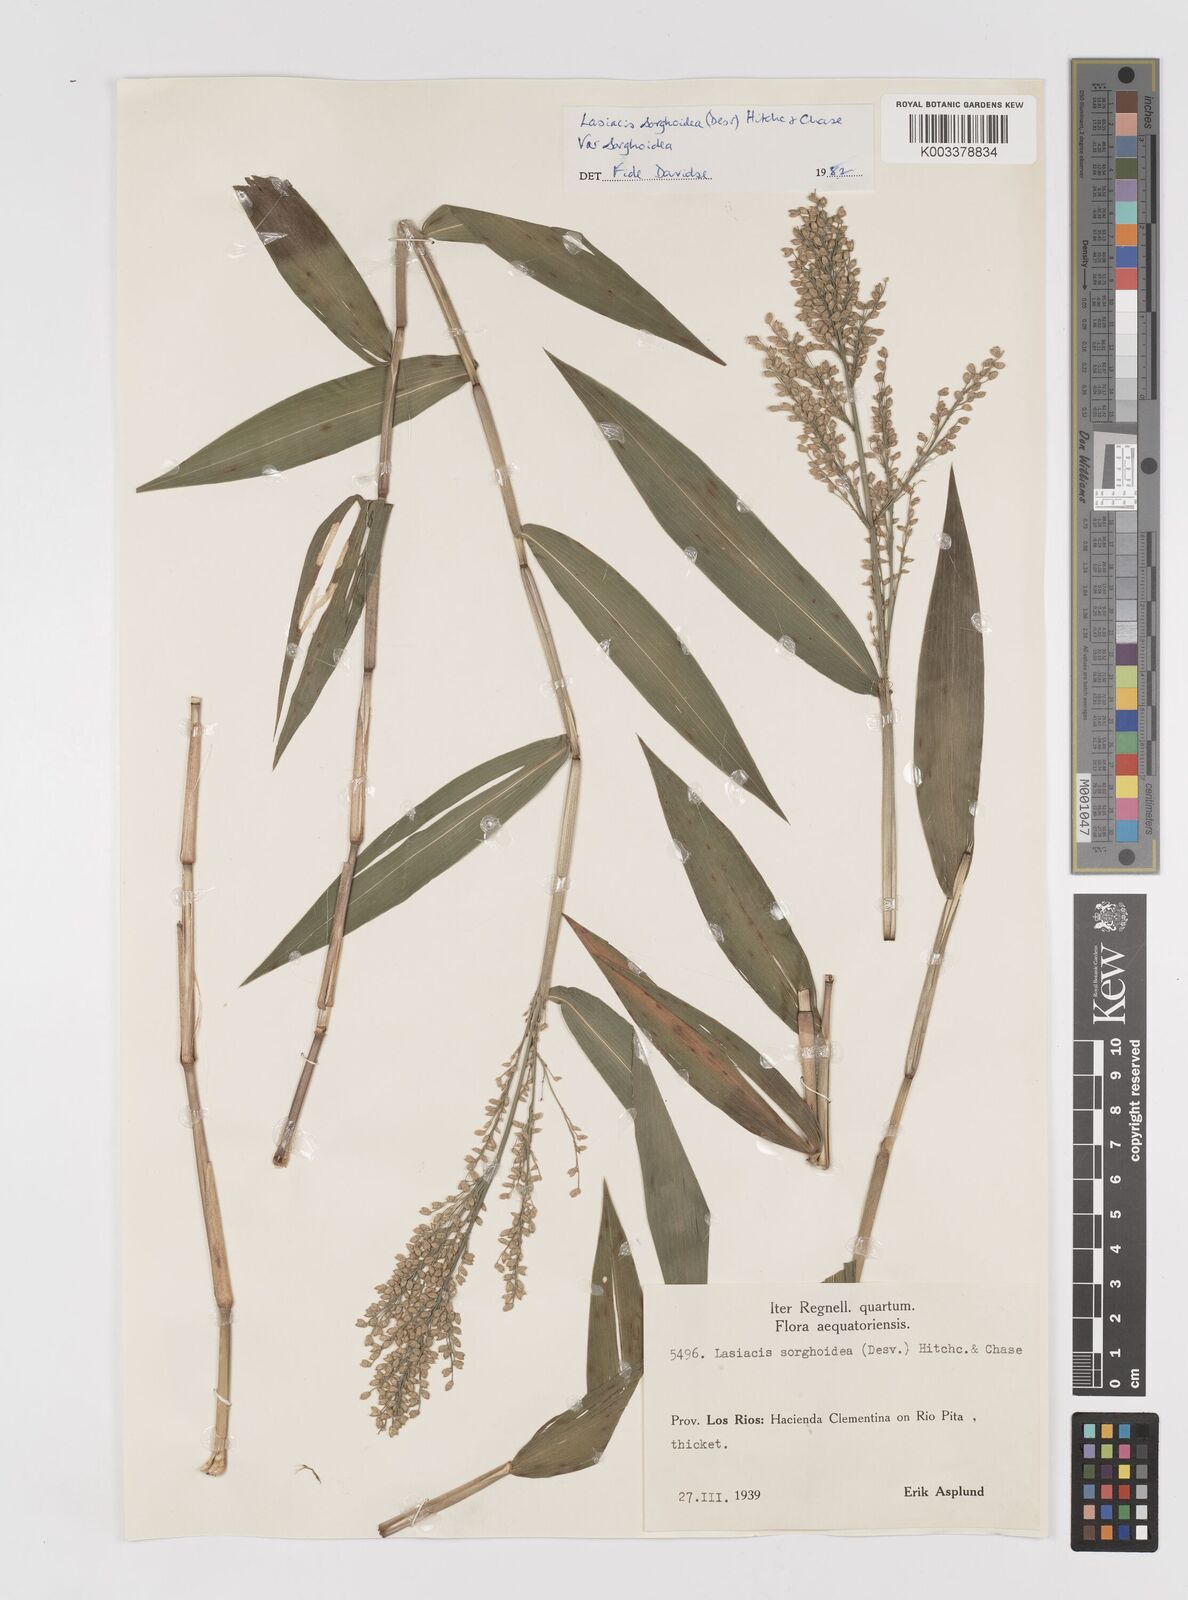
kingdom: Plantae
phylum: Tracheophyta
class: Liliopsida
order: Poales
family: Poaceae
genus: Lasiacis
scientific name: Lasiacis maculata
